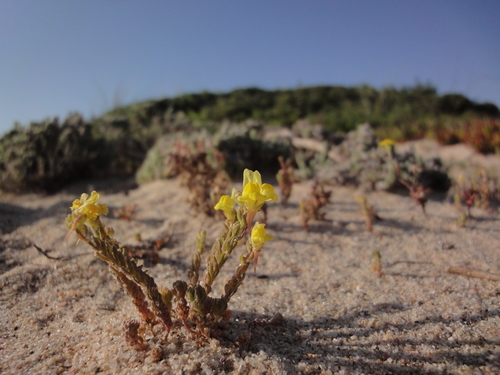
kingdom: Plantae
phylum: Tracheophyta
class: Magnoliopsida
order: Lamiales
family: Plantaginaceae
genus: Linaria
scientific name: Linaria bipunctata
